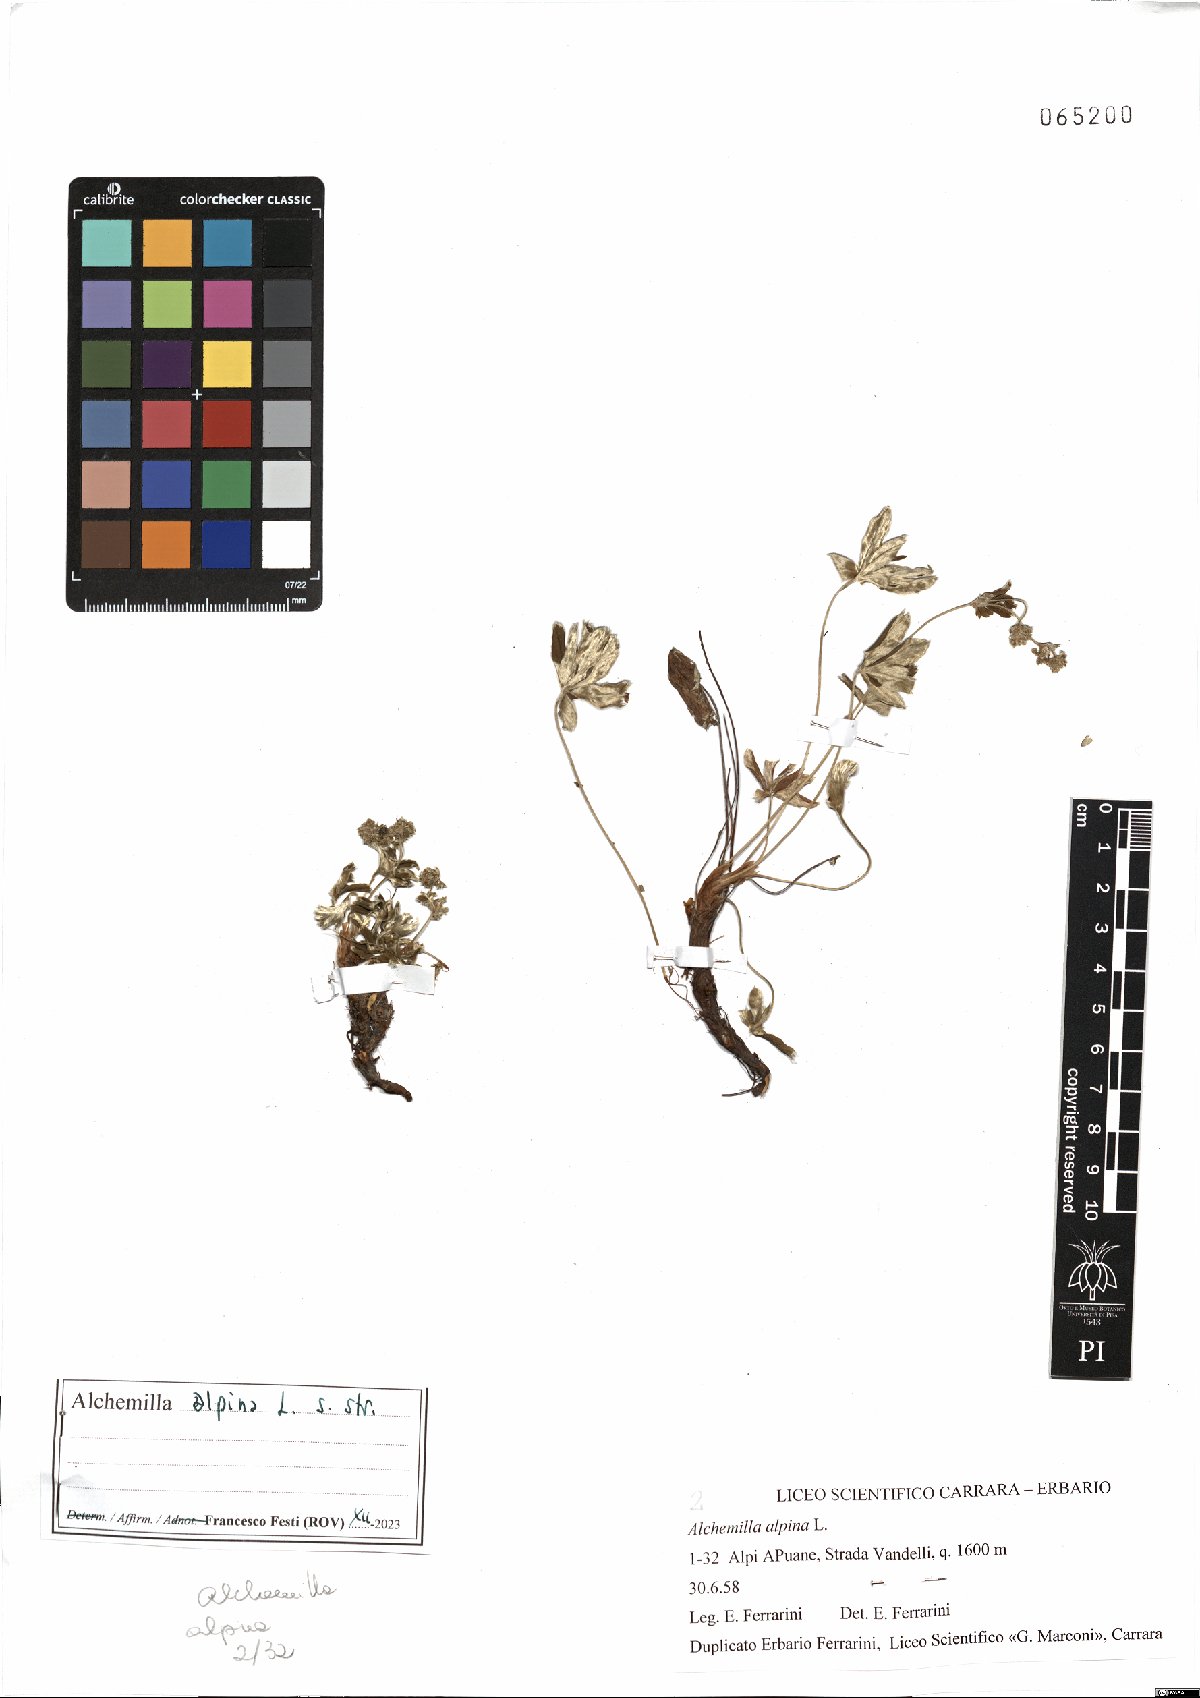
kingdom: Plantae
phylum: Tracheophyta
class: Magnoliopsida
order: Rosales
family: Rosaceae
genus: Alchemilla
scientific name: Alchemilla alpina
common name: Alpine lady's-mantle
